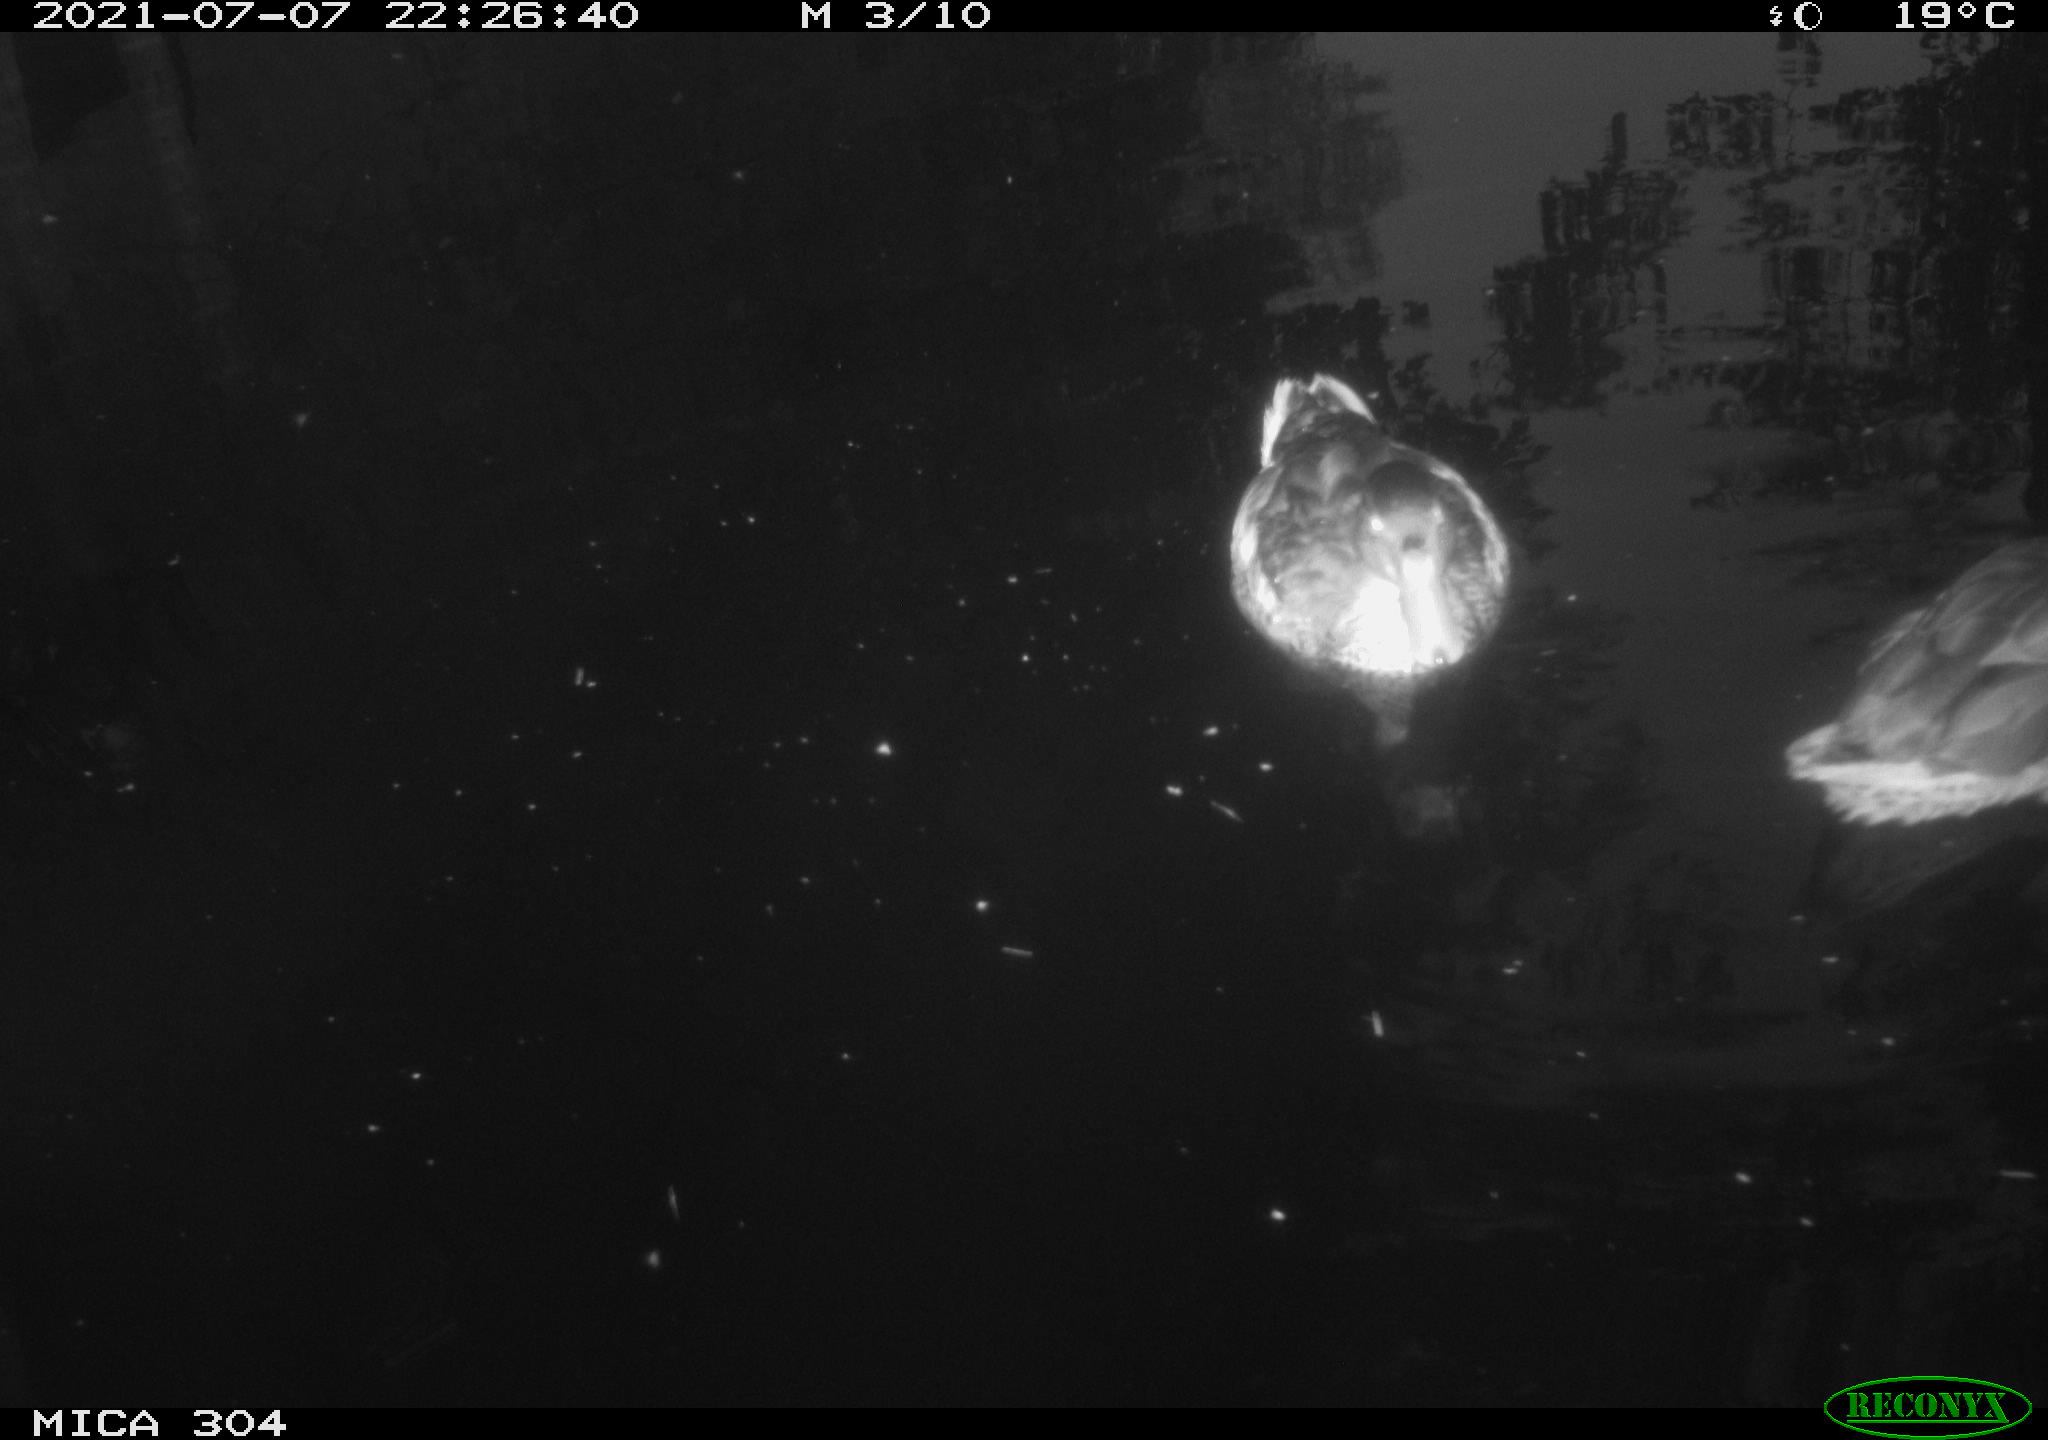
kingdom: Animalia
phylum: Chordata
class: Aves
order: Anseriformes
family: Anatidae
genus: Anas
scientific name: Anas platyrhynchos
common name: Mallard
